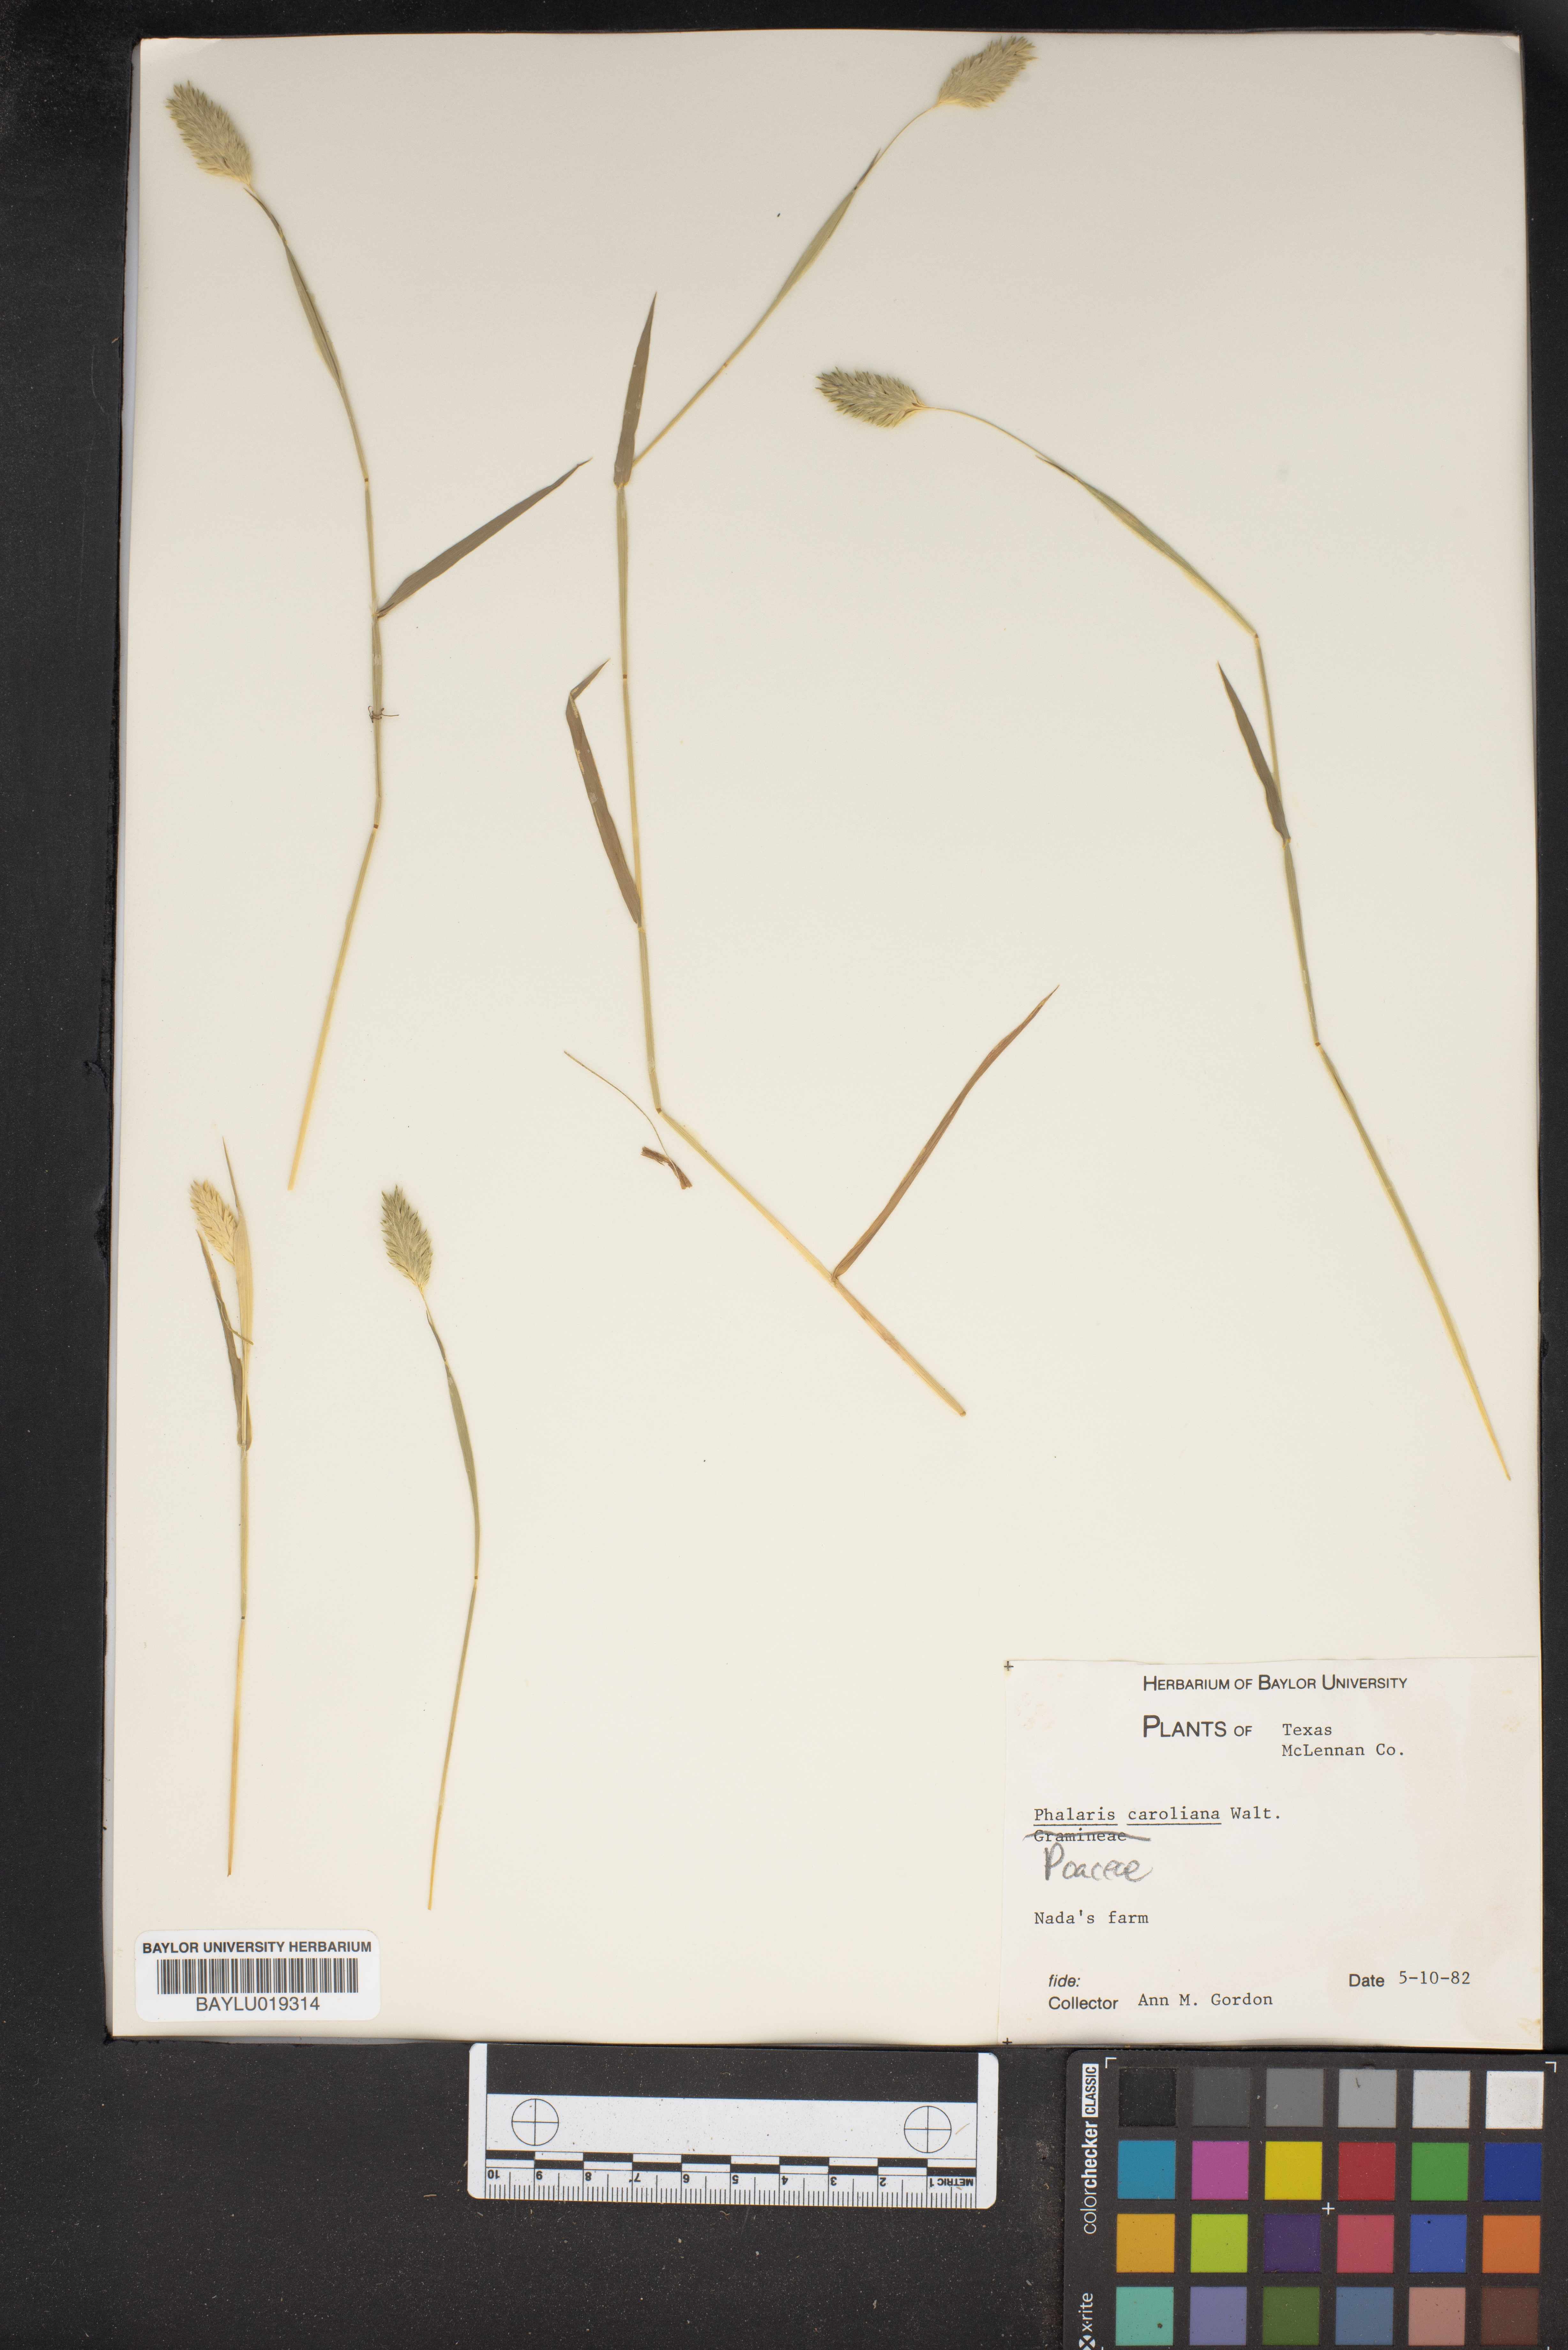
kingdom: Plantae
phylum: Tracheophyta
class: Liliopsida
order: Poales
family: Poaceae
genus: Phalaris
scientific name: Phalaris caroliniana
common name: May grass
